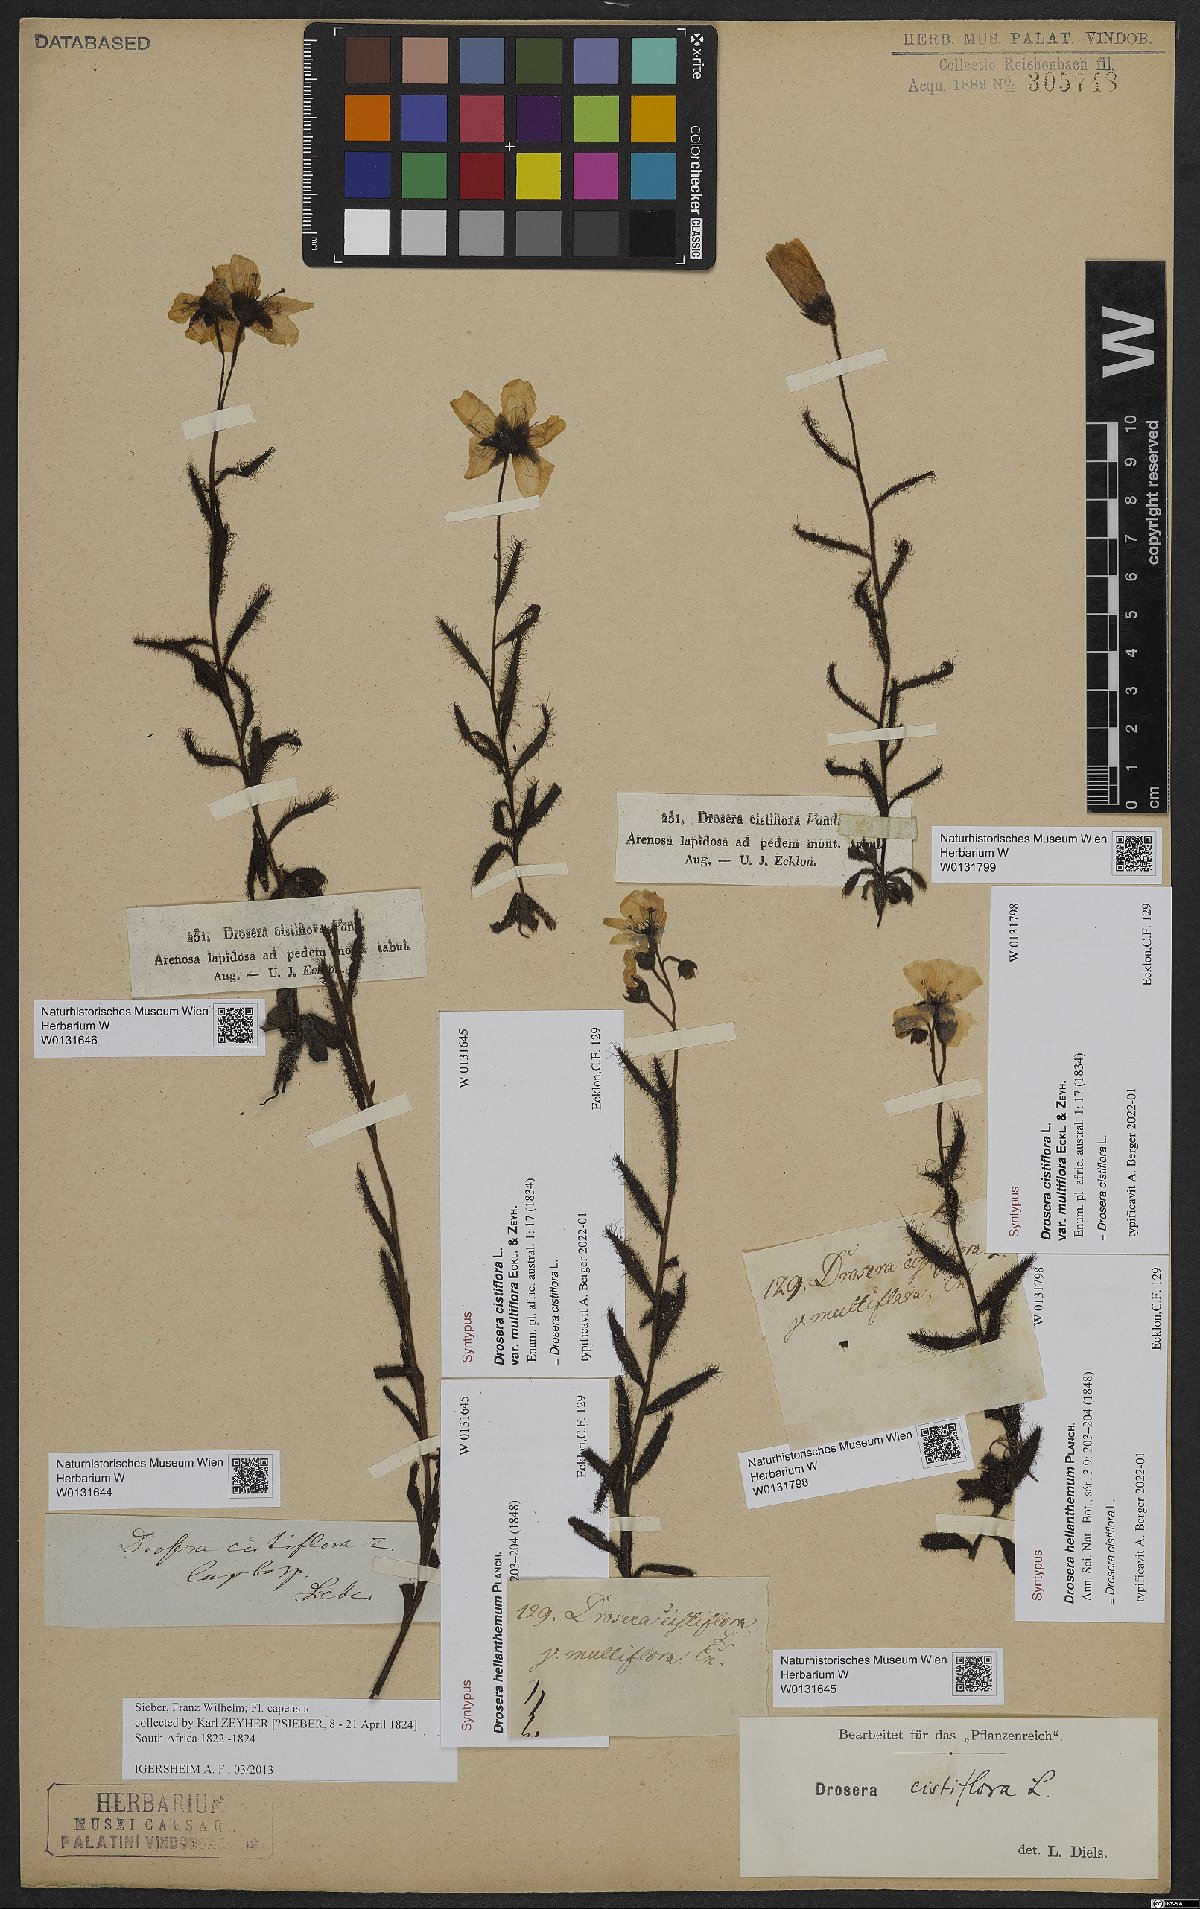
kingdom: Plantae
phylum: Tracheophyta
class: Magnoliopsida
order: Caryophyllales
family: Droseraceae
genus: Drosera
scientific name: Drosera cistiflora
